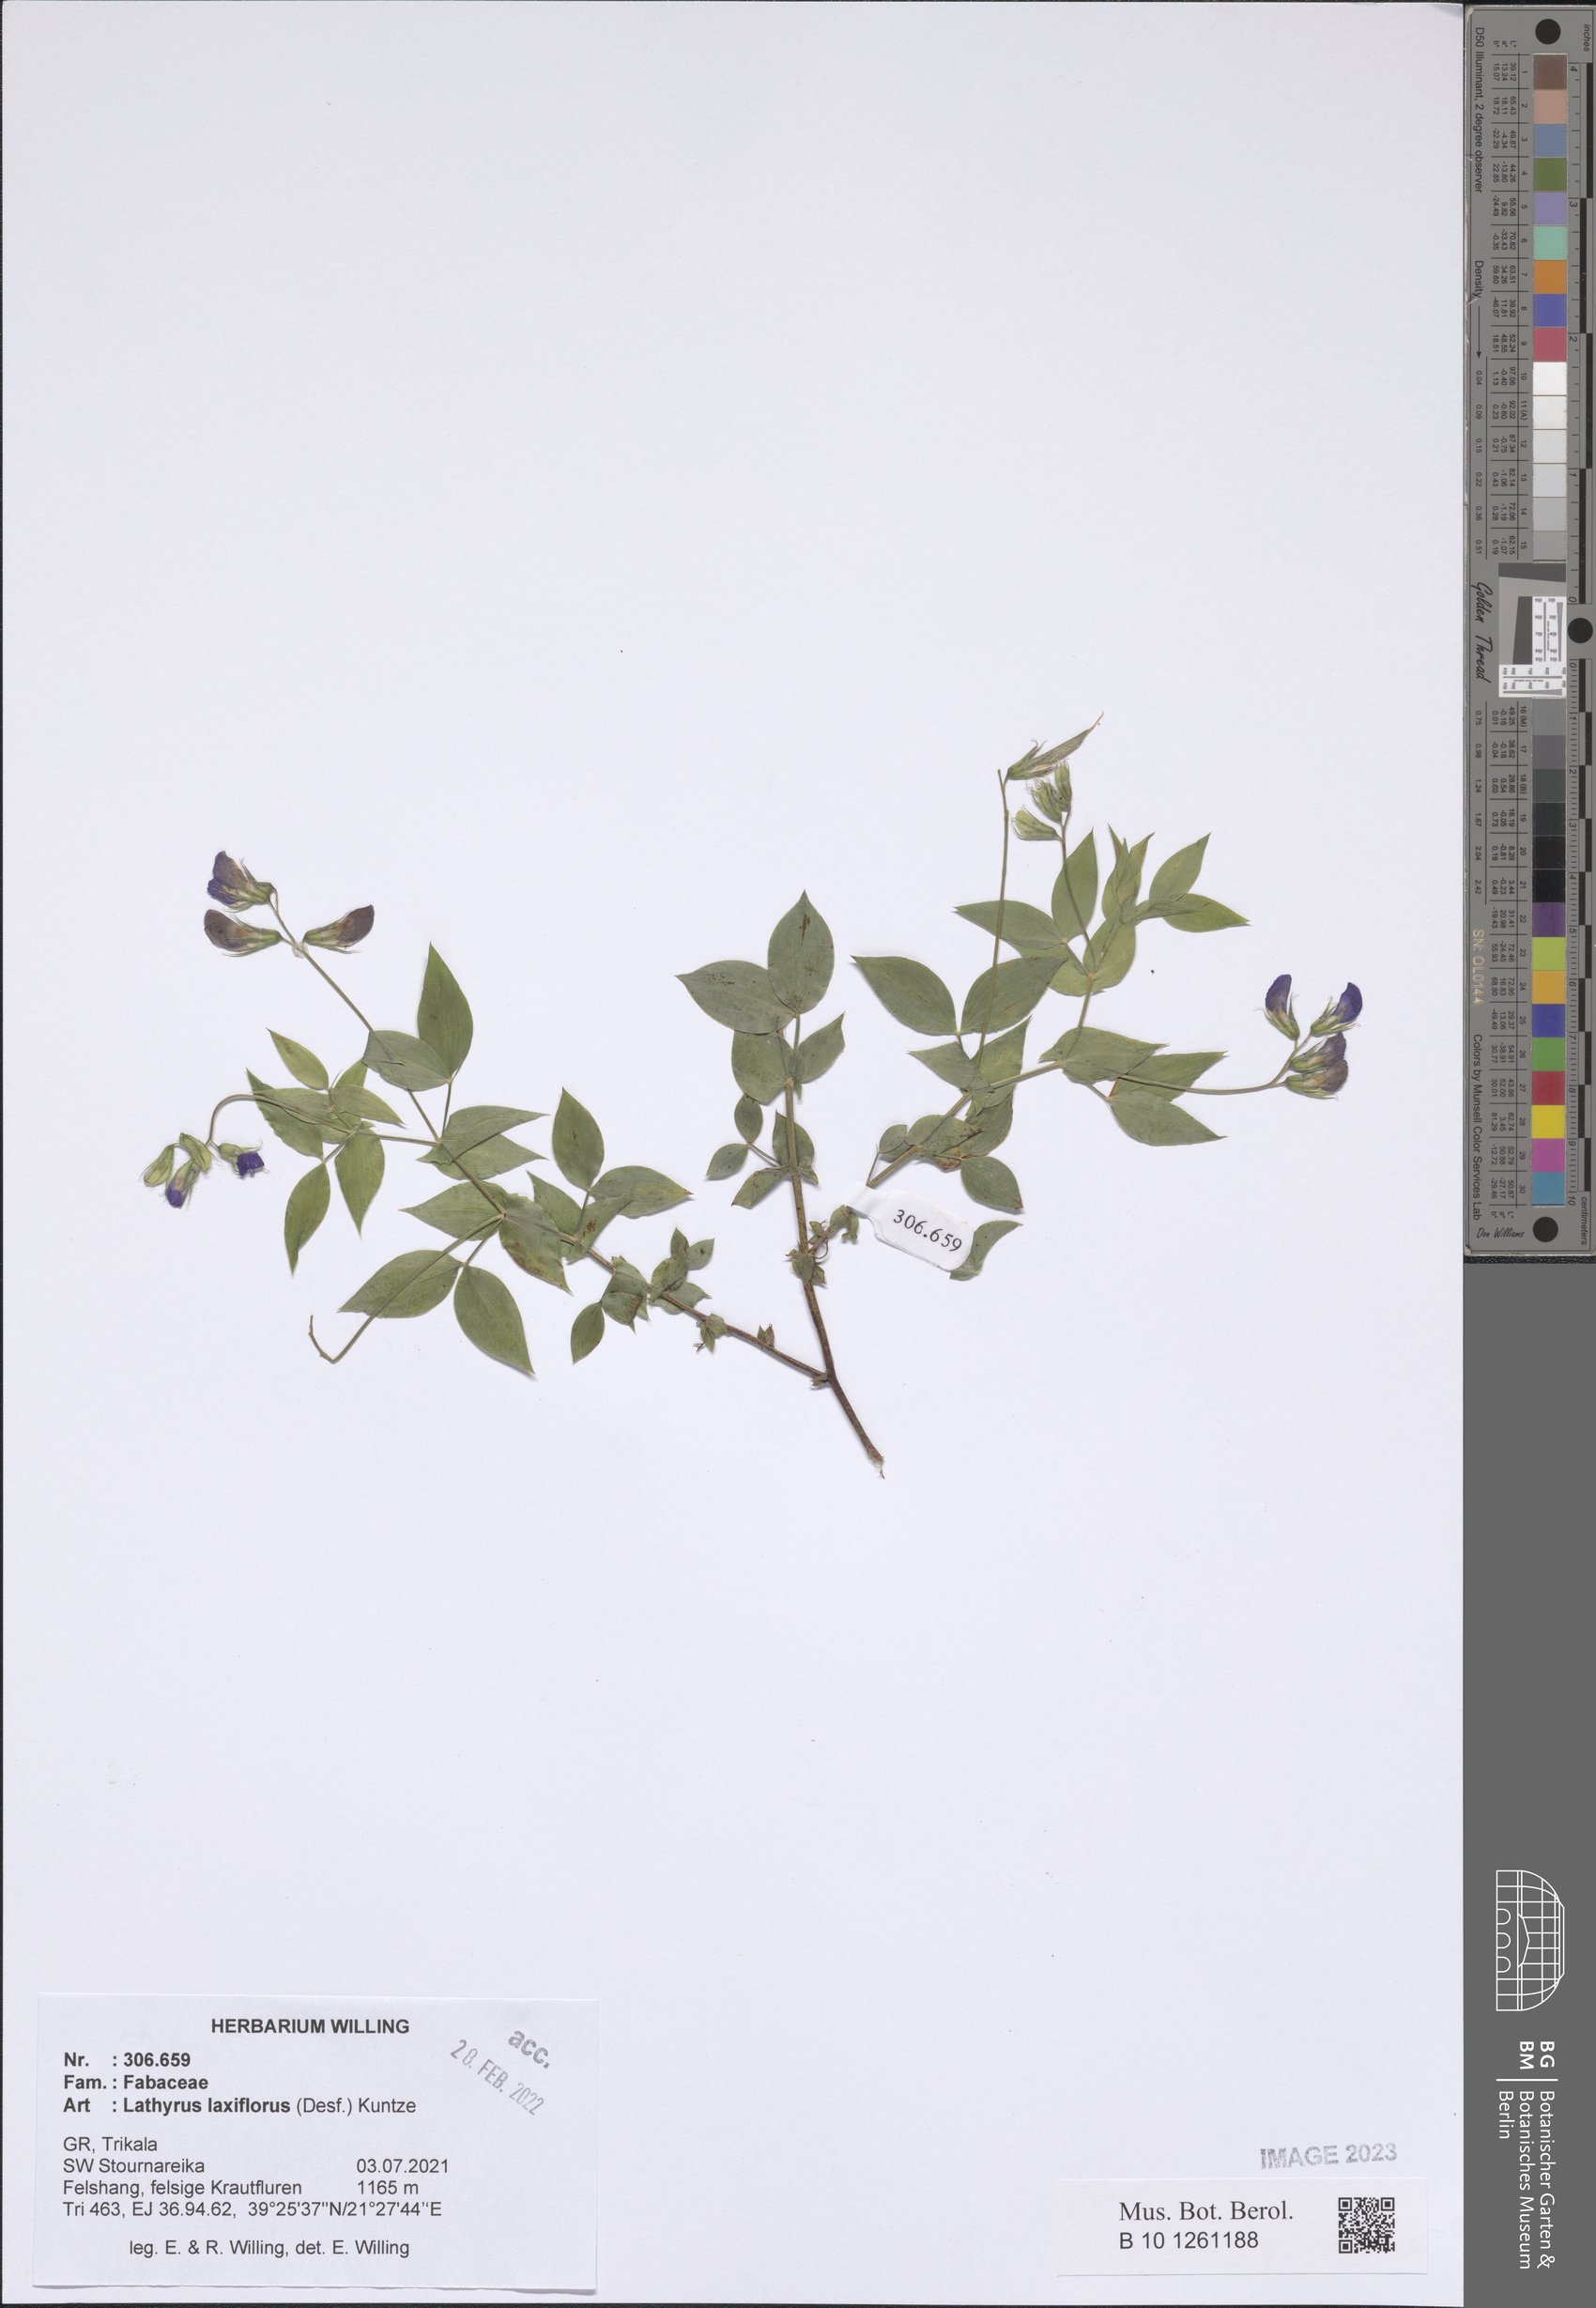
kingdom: Plantae
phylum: Tracheophyta
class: Magnoliopsida
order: Fabales
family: Fabaceae
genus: Lathyrus
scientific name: Lathyrus laxiflorus
